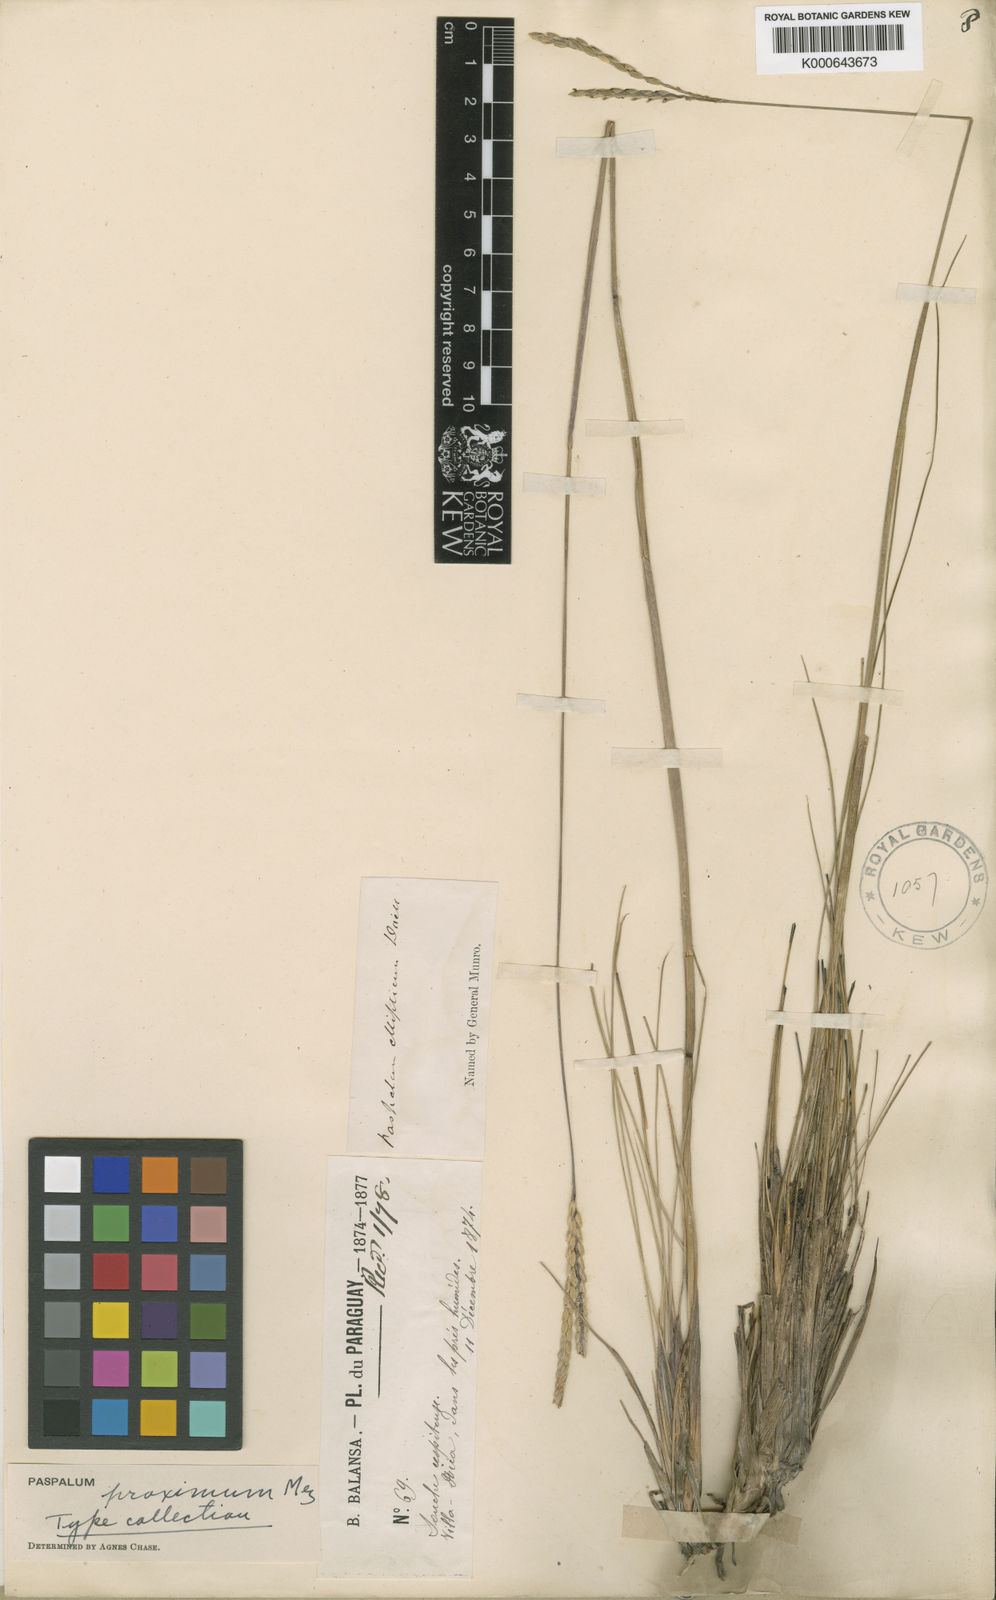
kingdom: Plantae
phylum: Tracheophyta
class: Liliopsida
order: Poales
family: Poaceae
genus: Paspalum
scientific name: Paspalum ellipticum
